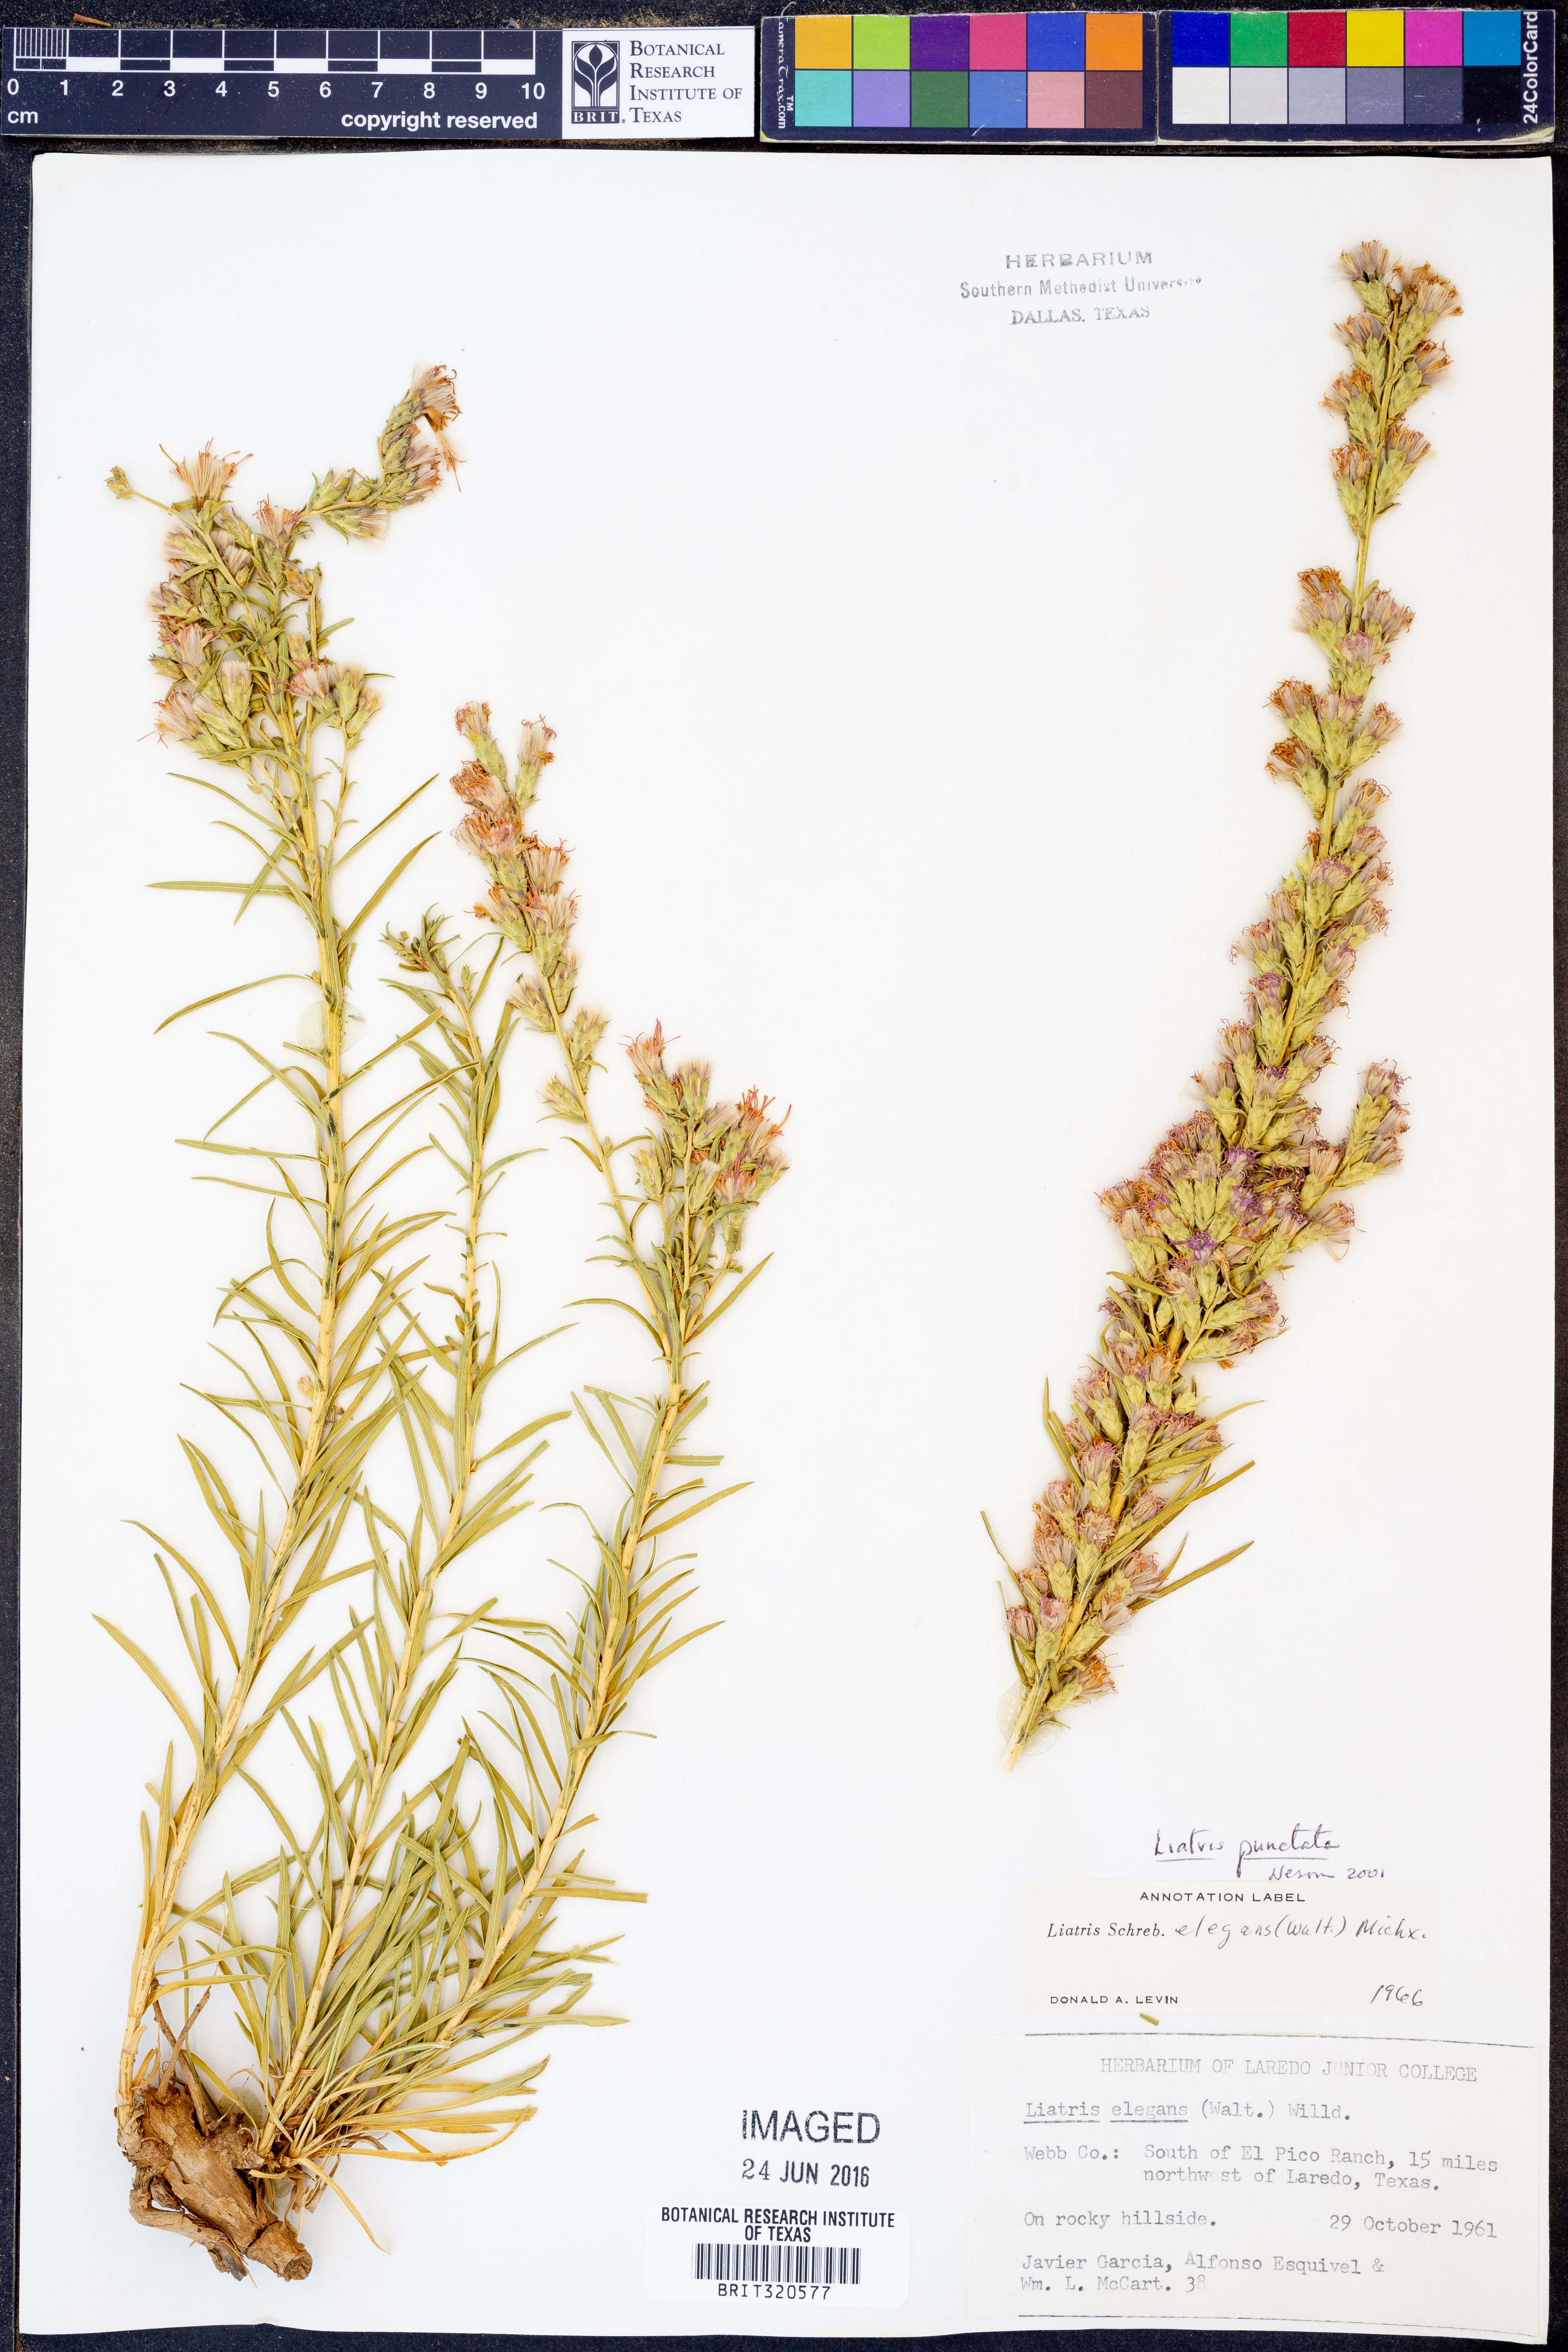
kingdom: Plantae
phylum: Tracheophyta
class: Magnoliopsida
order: Asterales
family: Asteraceae
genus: Liatris
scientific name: Liatris punctata
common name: Dotted gayfeather
